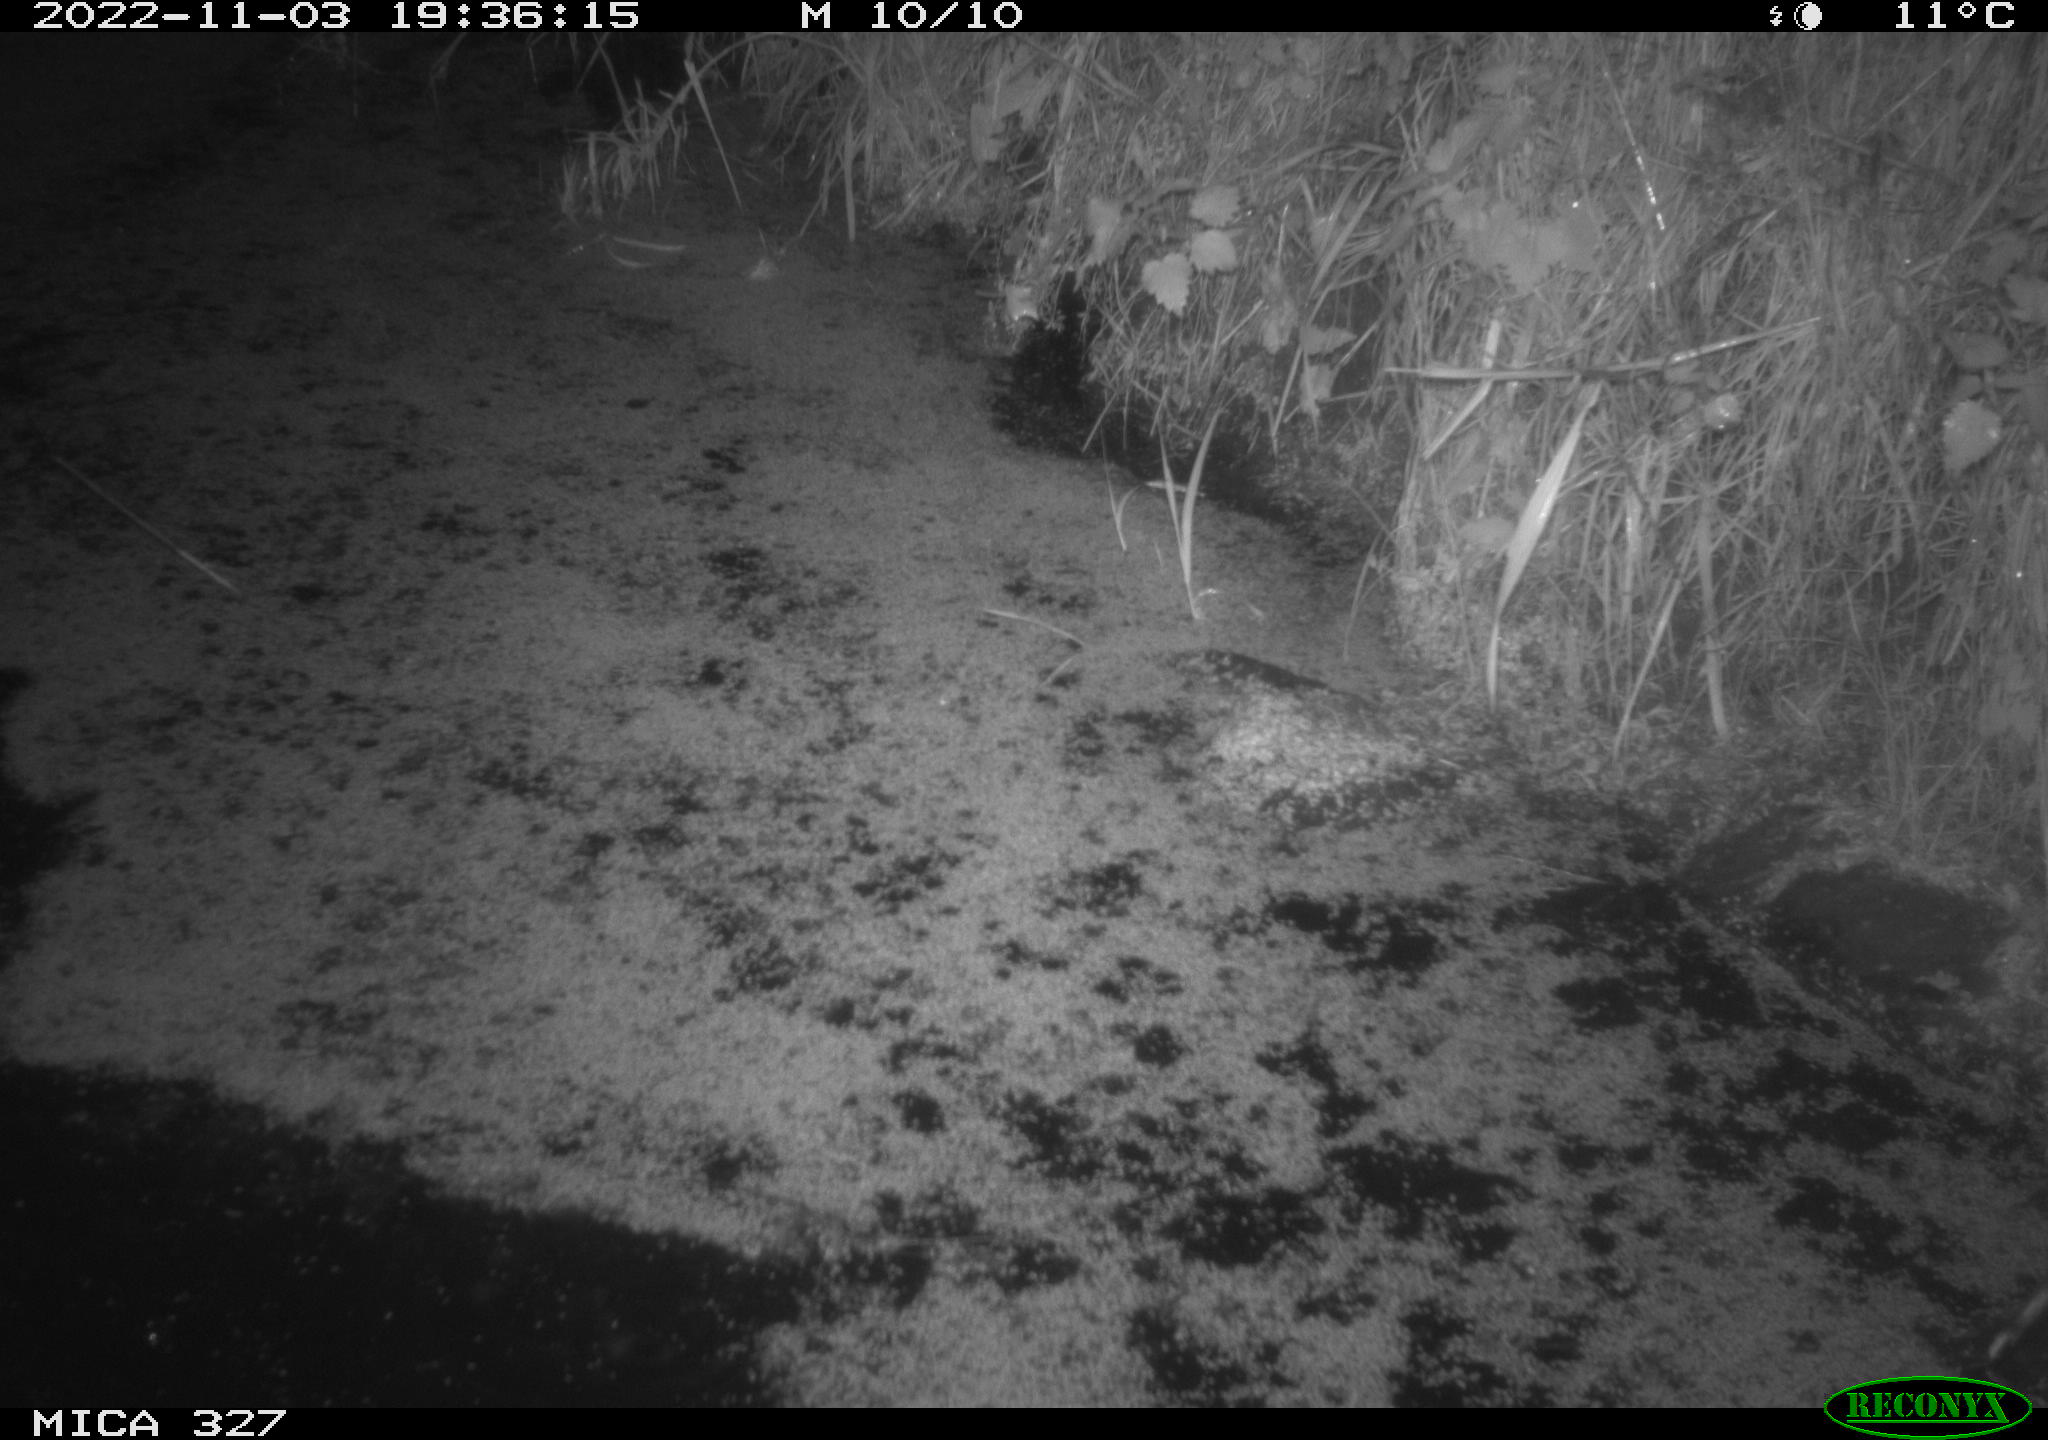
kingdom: Animalia
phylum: Chordata
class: Mammalia
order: Rodentia
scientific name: Rodentia
